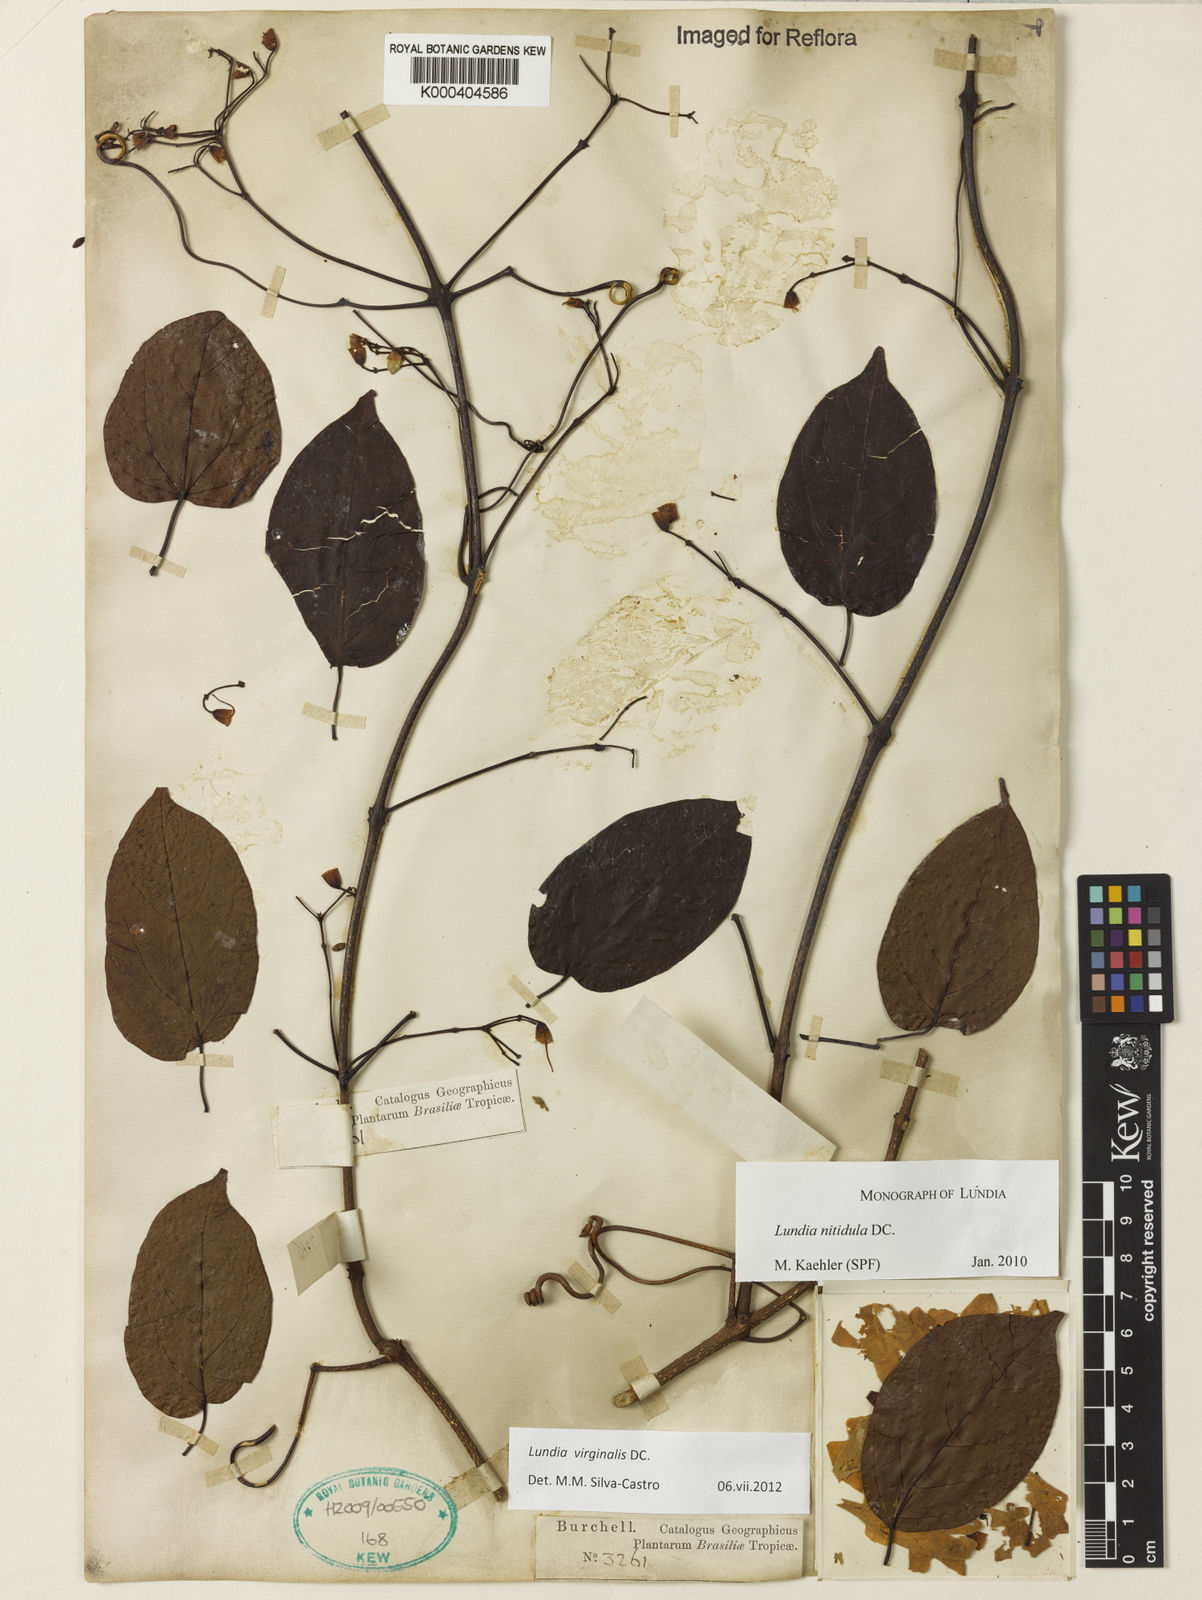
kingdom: Plantae
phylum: Tracheophyta
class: Magnoliopsida
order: Lamiales
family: Bignoniaceae
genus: Lundia
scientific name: Lundia virginalis
